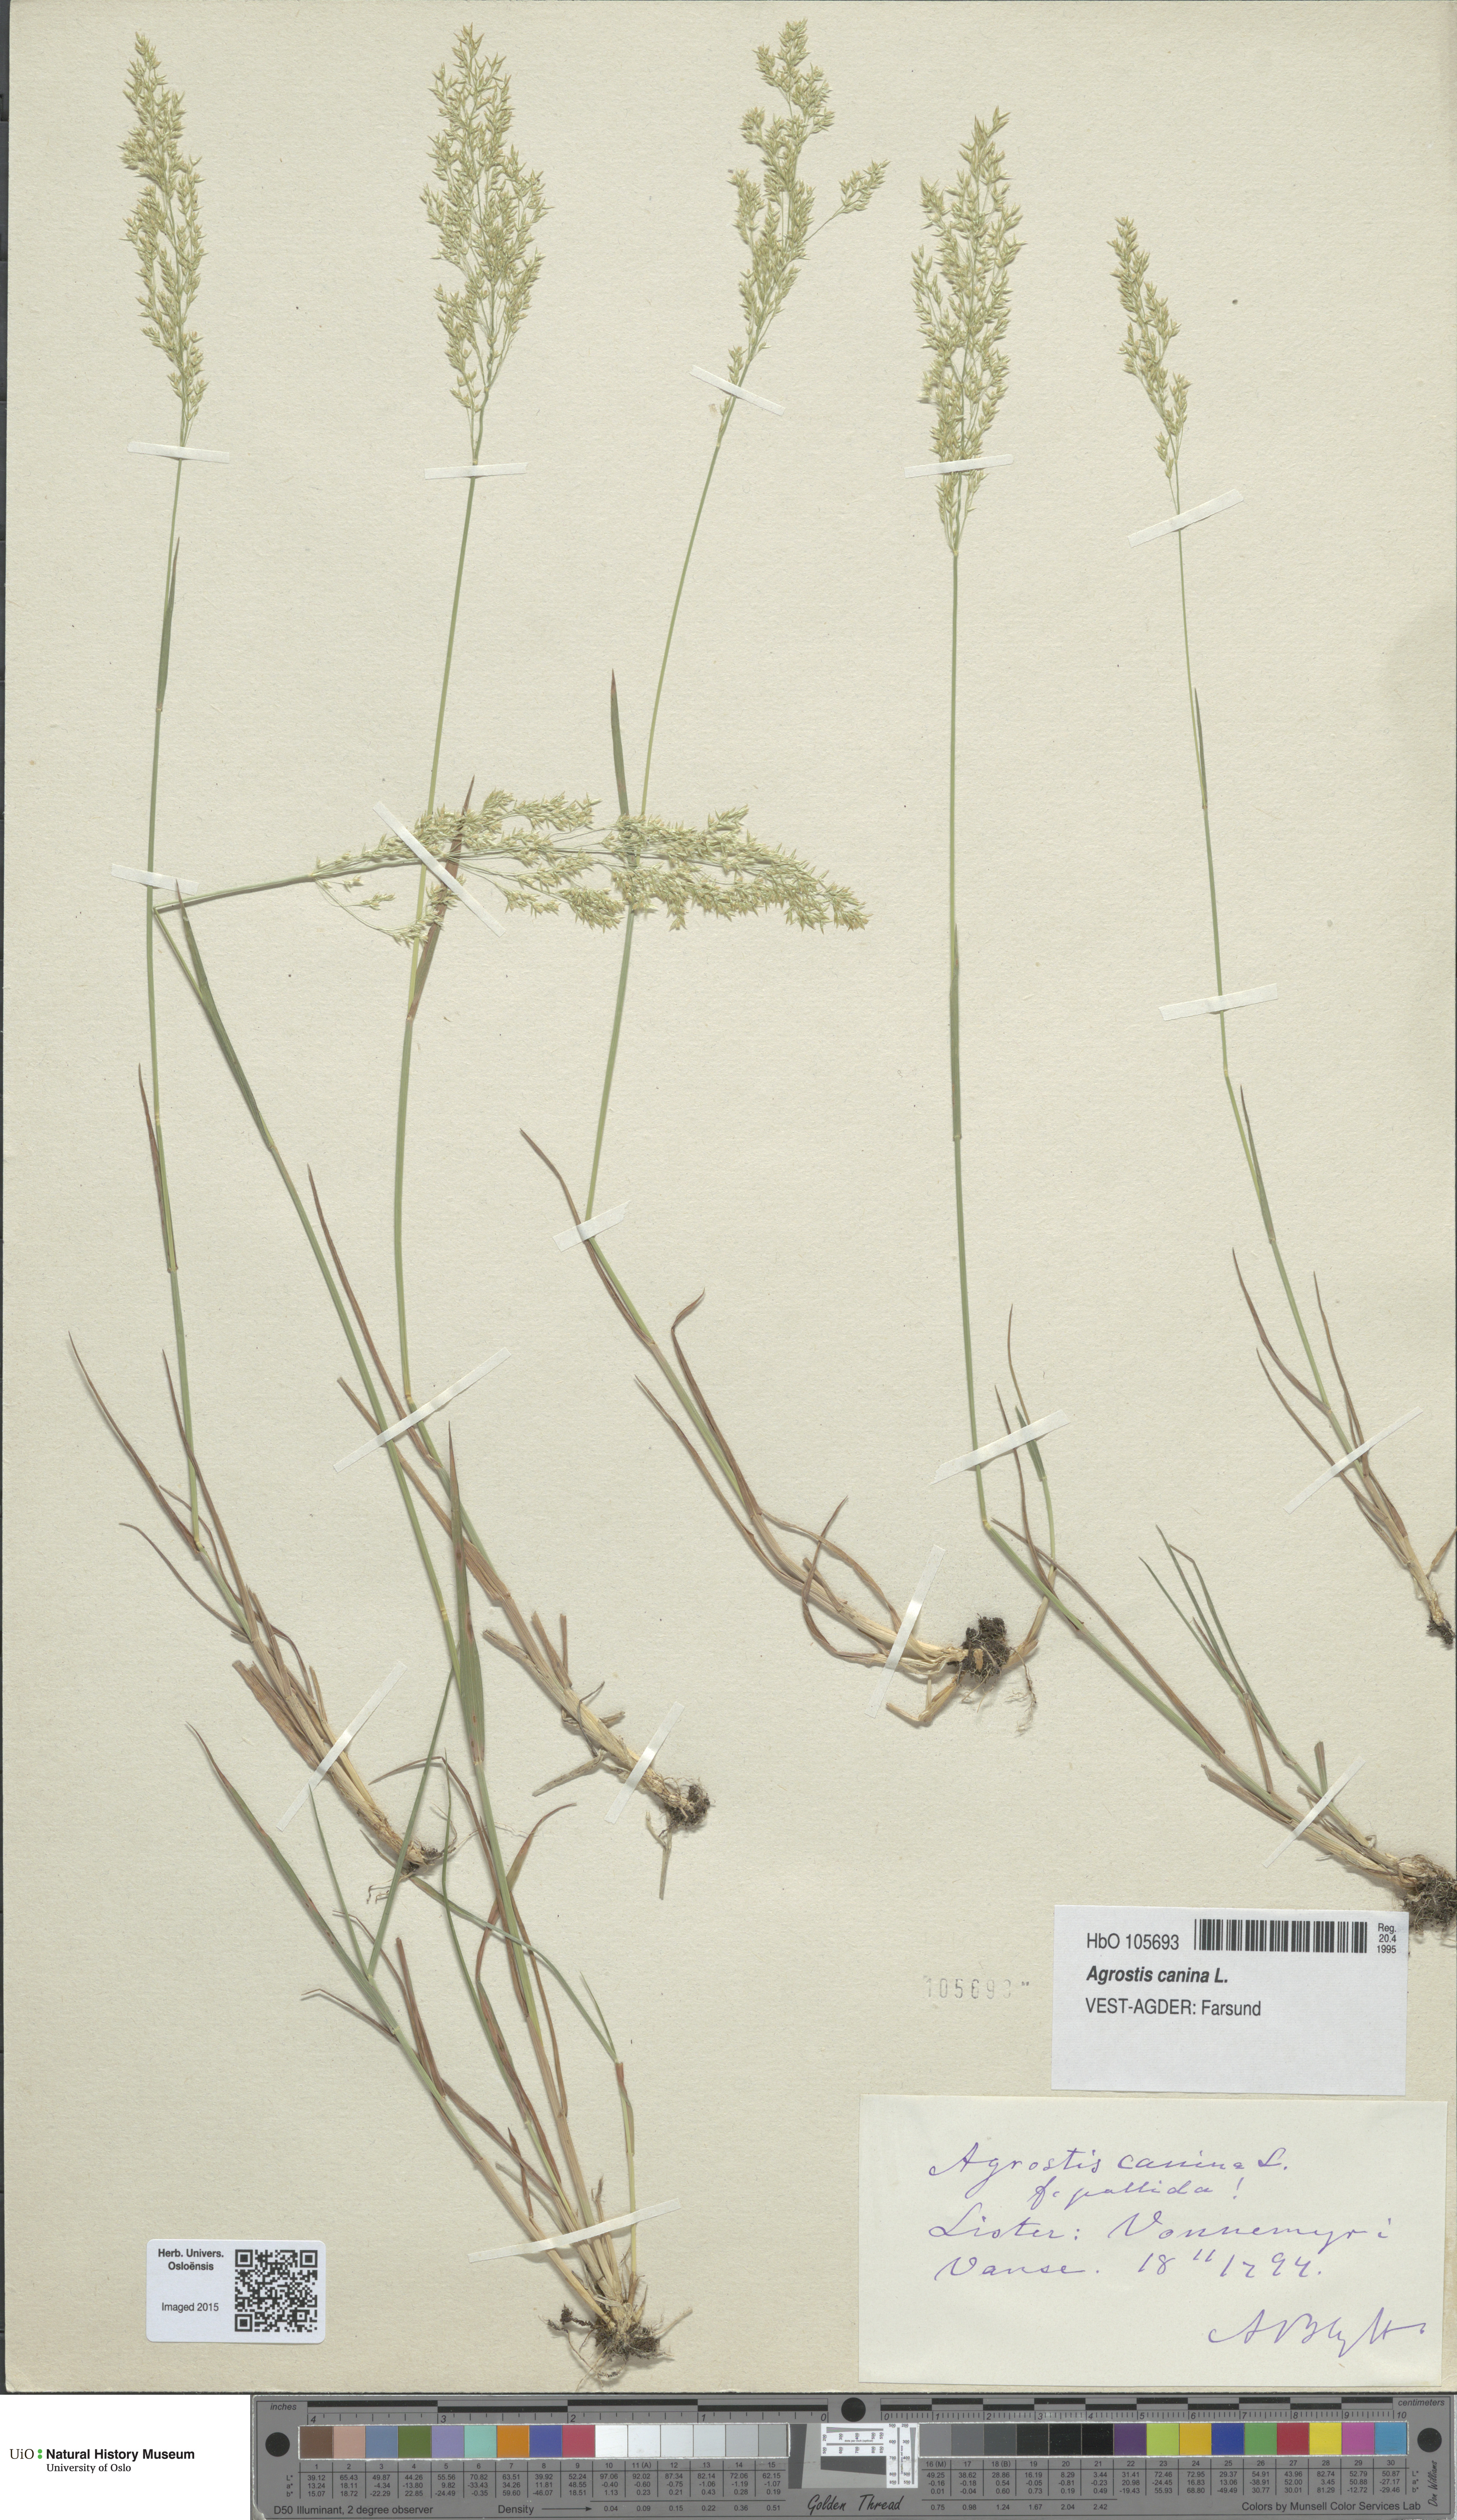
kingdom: Plantae
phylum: Tracheophyta
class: Liliopsida
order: Poales
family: Poaceae
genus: Agrostis
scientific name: Agrostis canina
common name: Velvet bent
